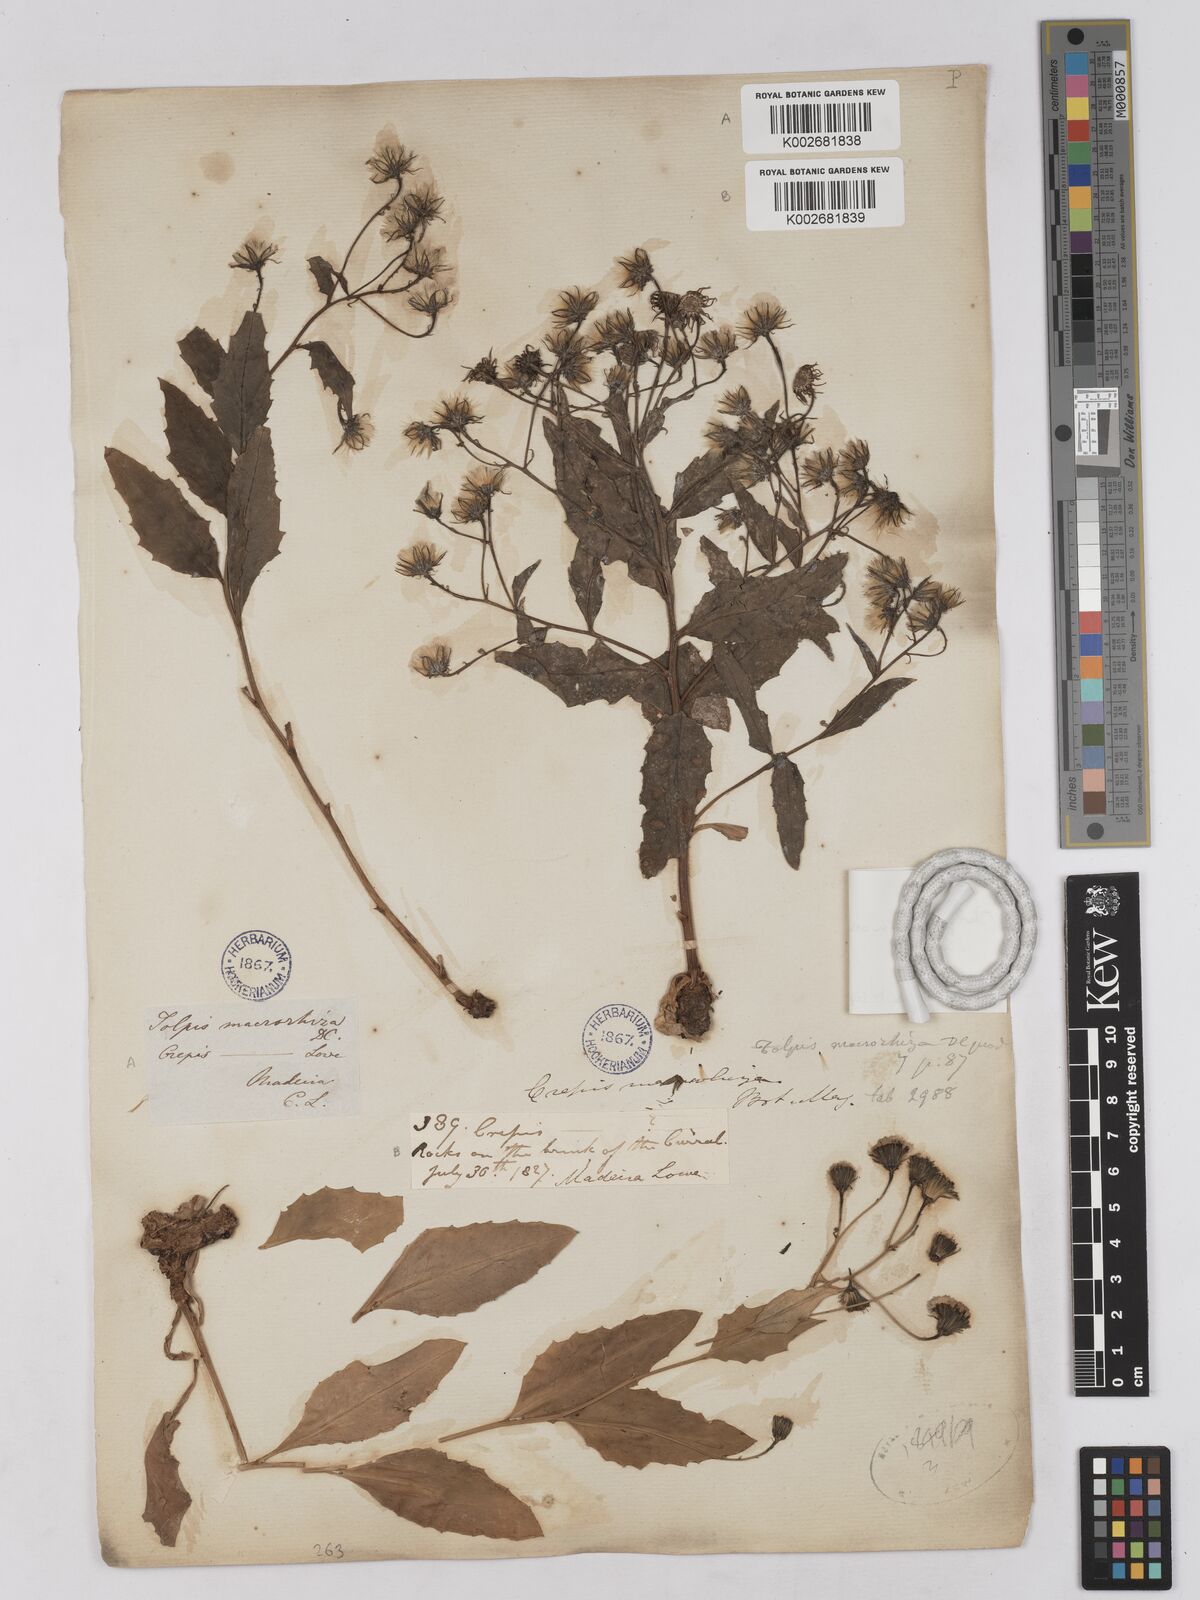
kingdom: Plantae
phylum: Tracheophyta
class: Magnoliopsida
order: Asterales
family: Asteraceae
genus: Tolpis
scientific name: Tolpis macrorhiza
